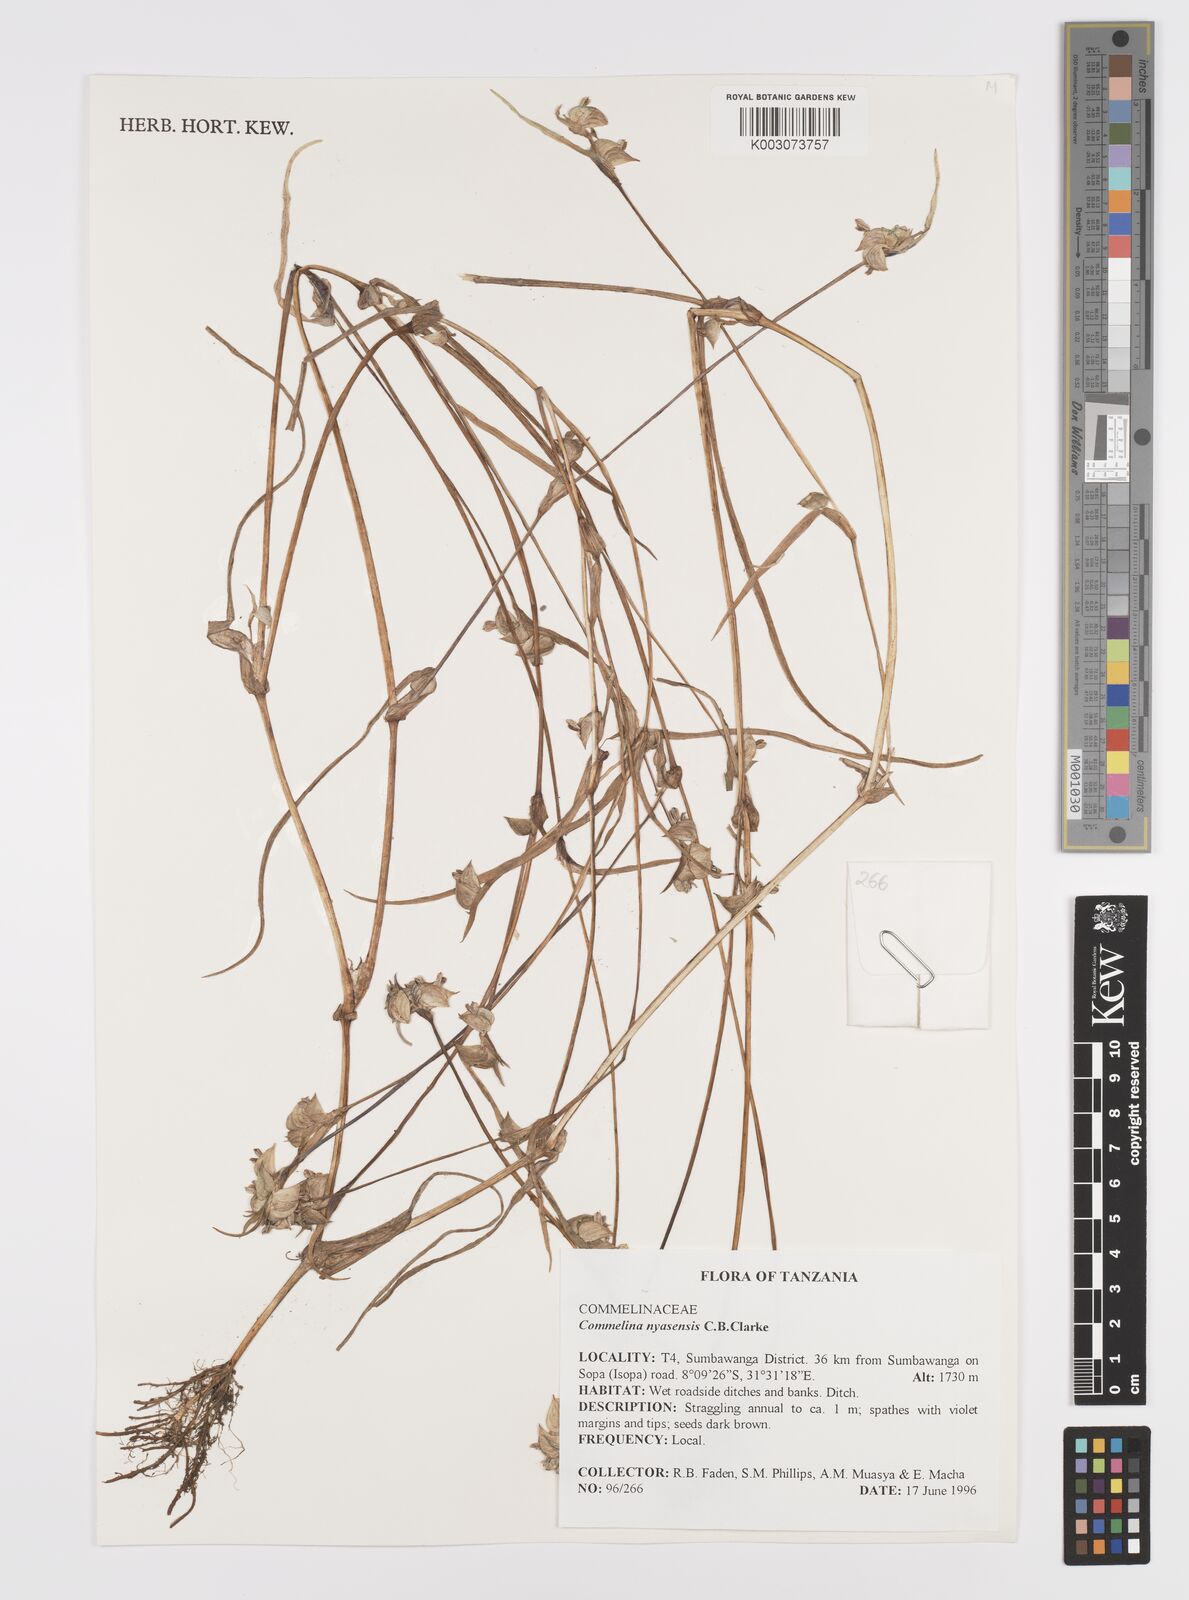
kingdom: Plantae
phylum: Tracheophyta
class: Liliopsida
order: Commelinales
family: Commelinaceae
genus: Commelina
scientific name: Commelina nyasensis
